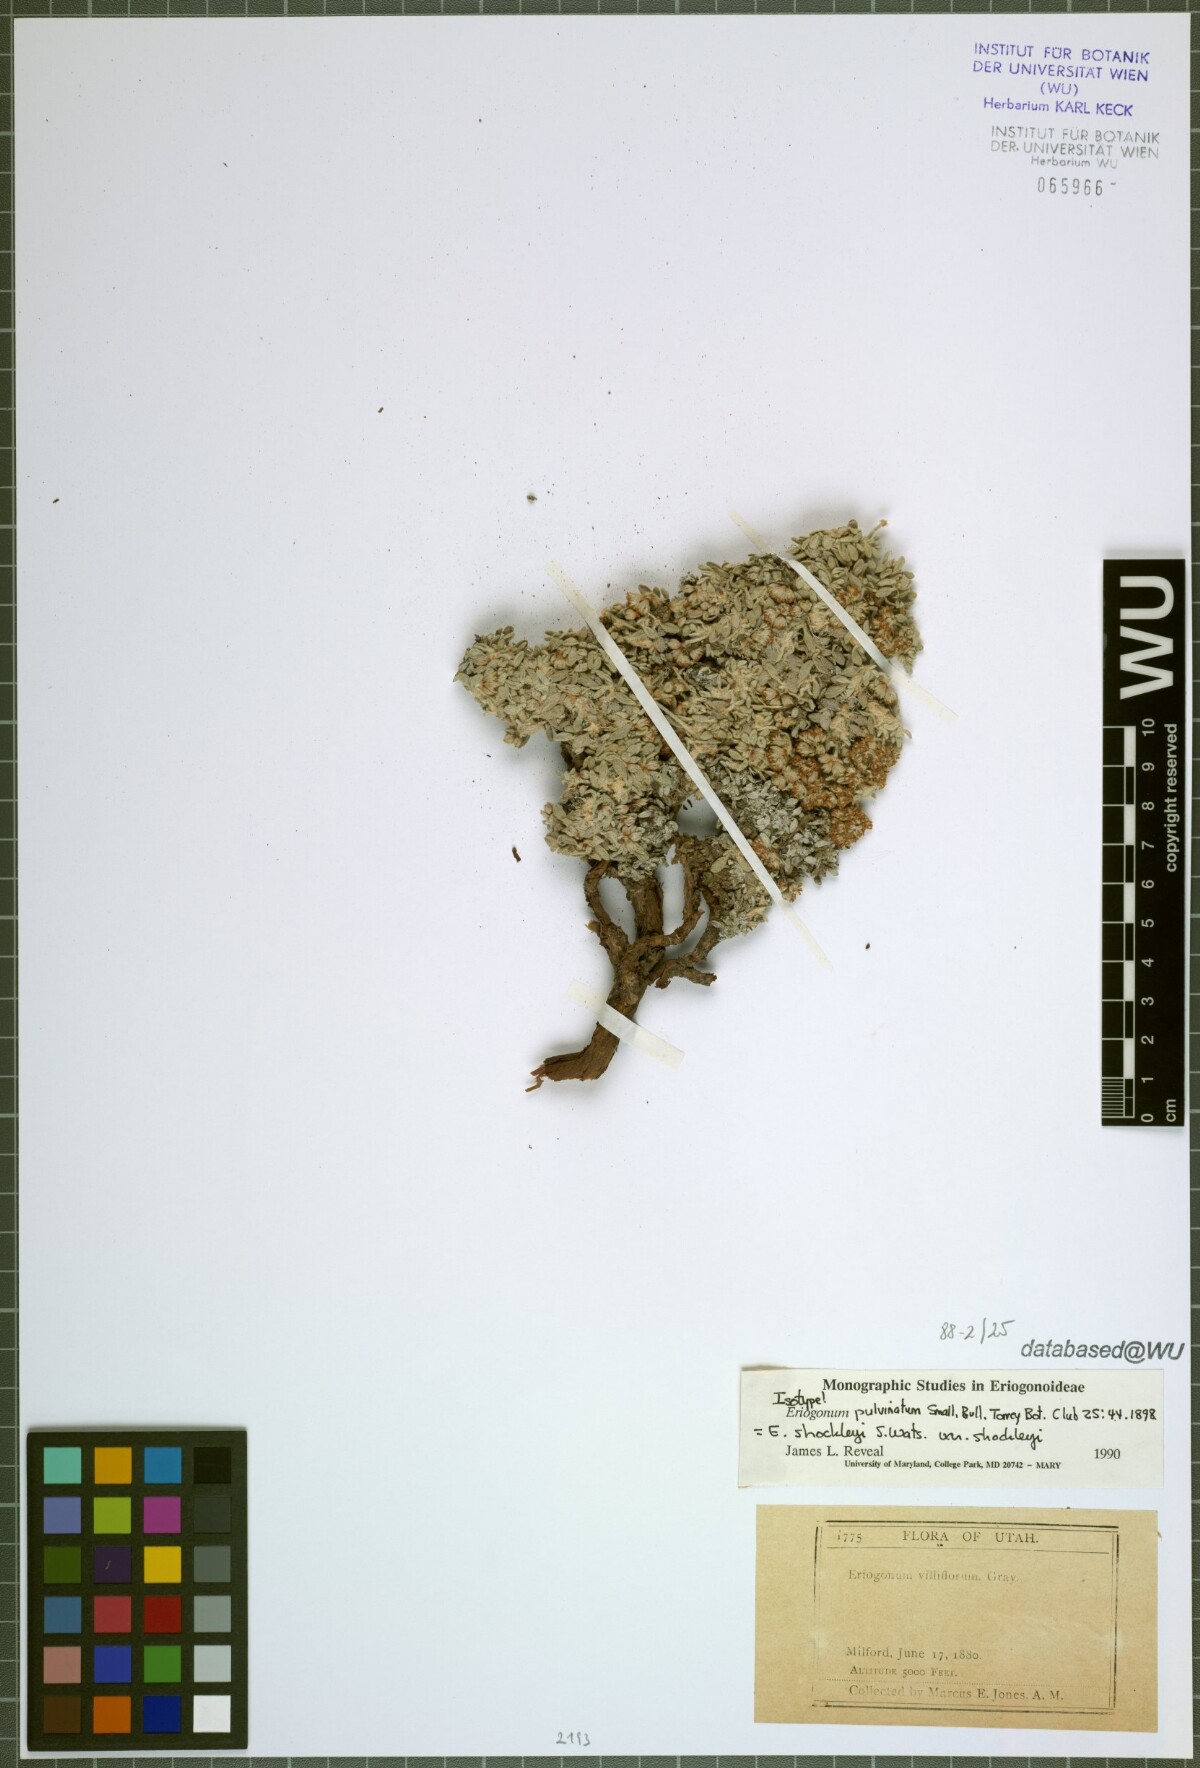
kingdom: Plantae
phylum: Tracheophyta
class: Magnoliopsida
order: Caryophyllales
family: Polygonaceae
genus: Eriogonum
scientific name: Eriogonum shockleyi
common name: Shockley's wild buckwheat
